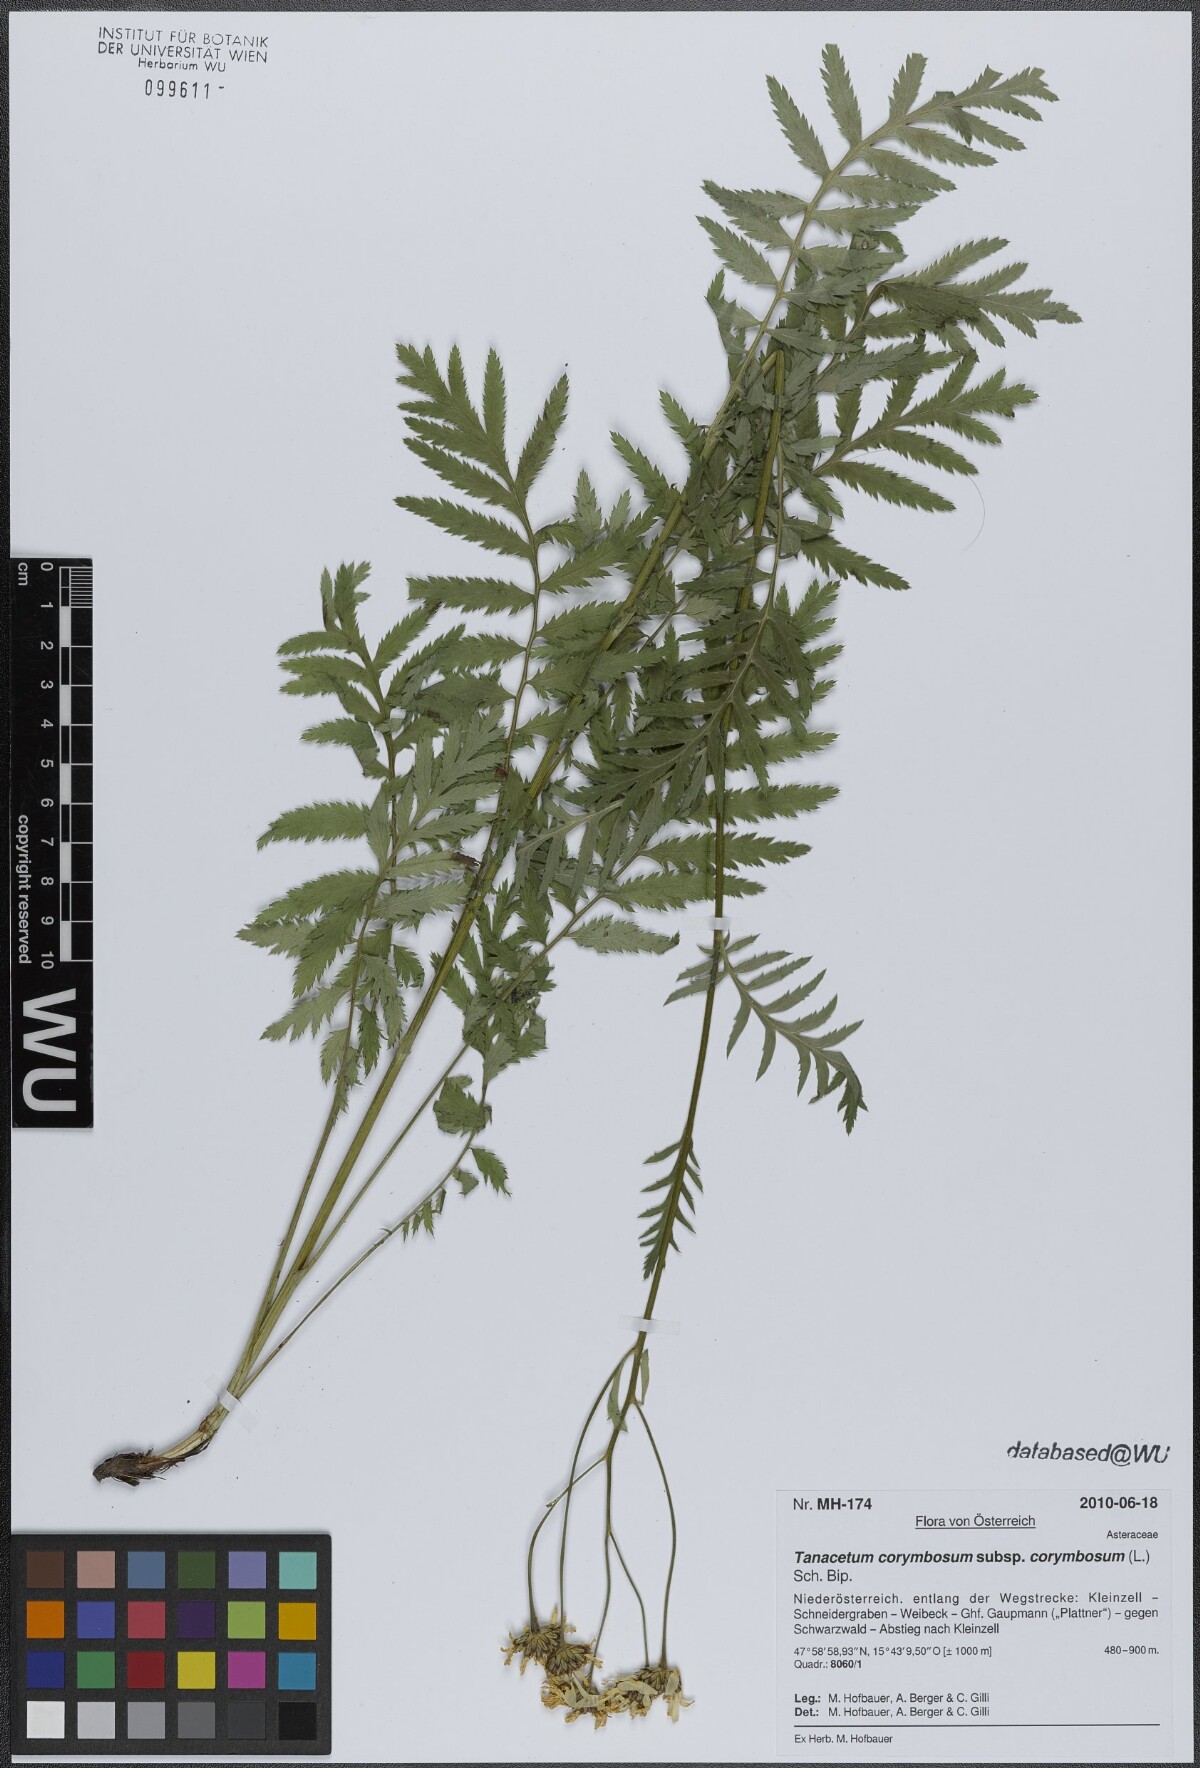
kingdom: Plantae
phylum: Tracheophyta
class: Magnoliopsida
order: Asterales
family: Asteraceae
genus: Tanacetum
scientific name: Tanacetum corymbosum
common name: Scentless feverfew
